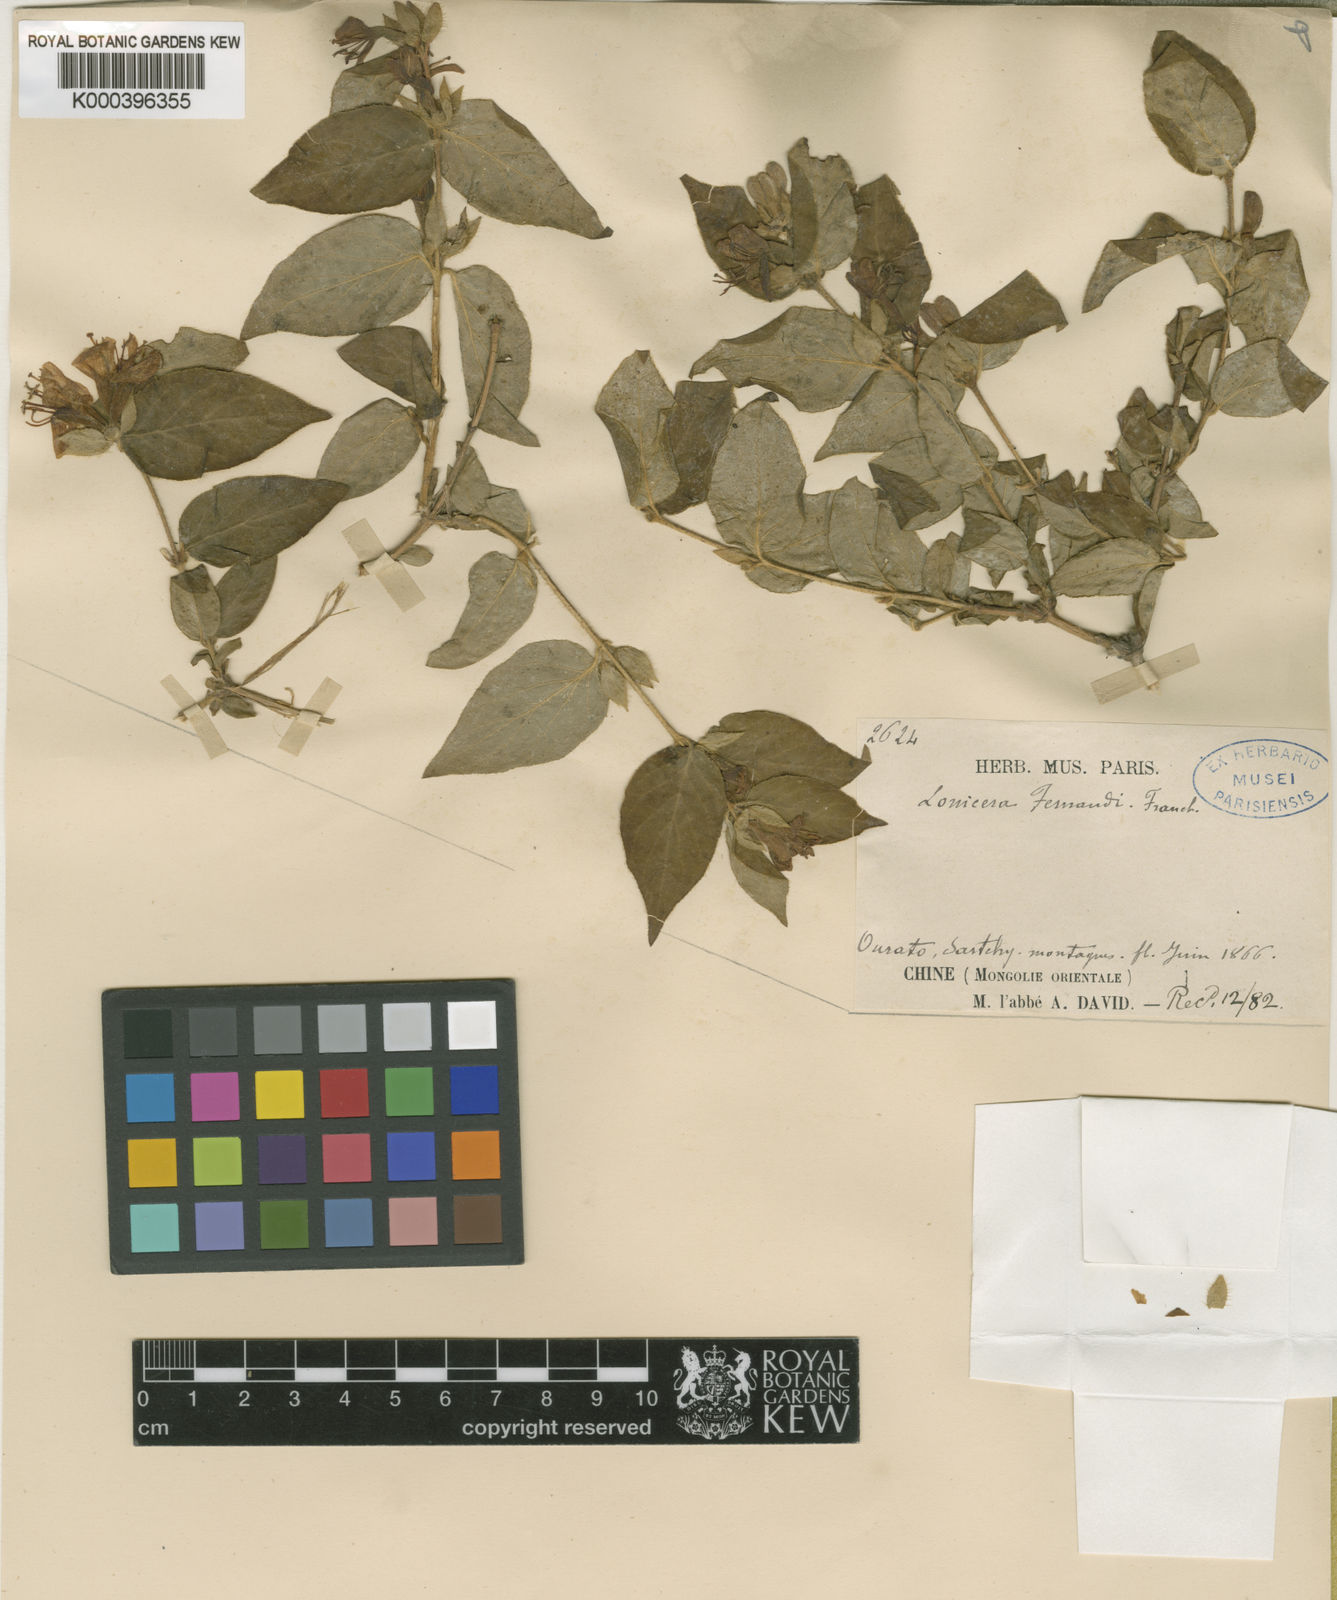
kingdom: Plantae
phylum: Tracheophyta
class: Magnoliopsida
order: Dipsacales
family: Caprifoliaceae
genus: Lonicera
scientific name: Lonicera ferdinandi
